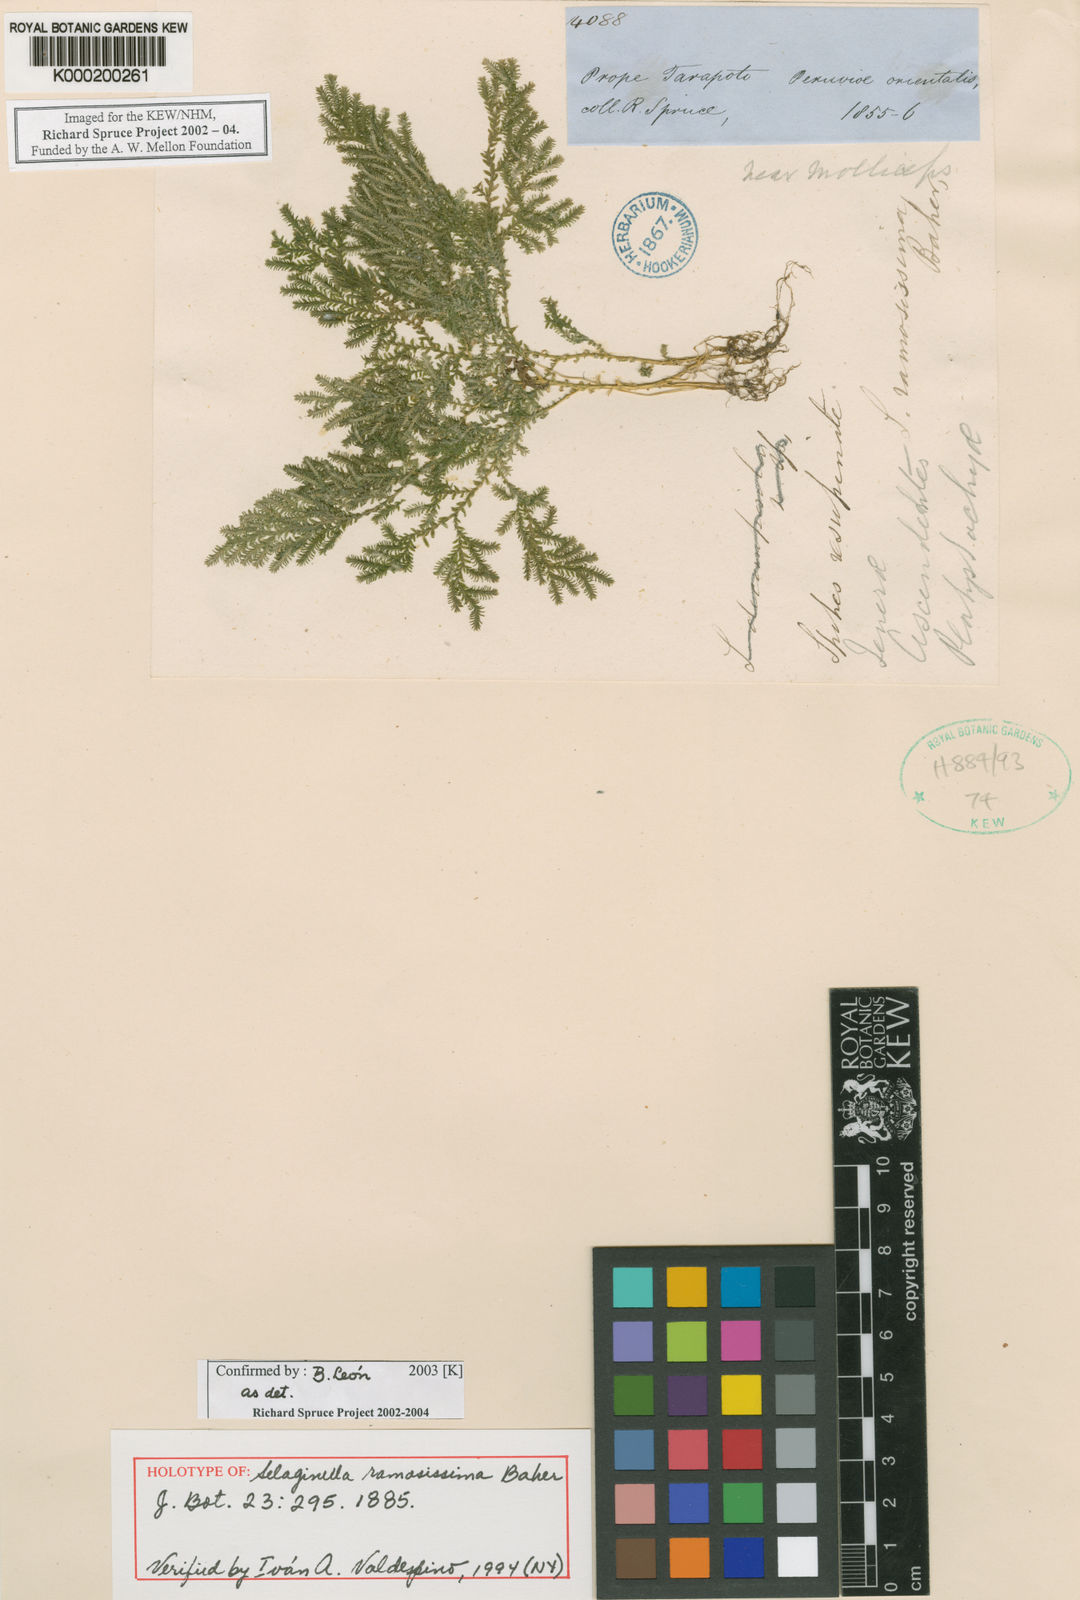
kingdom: Plantae
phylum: Tracheophyta
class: Lycopodiopsida
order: Selaginellales
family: Selaginellaceae
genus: Selaginella
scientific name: Selaginella ramosissima
